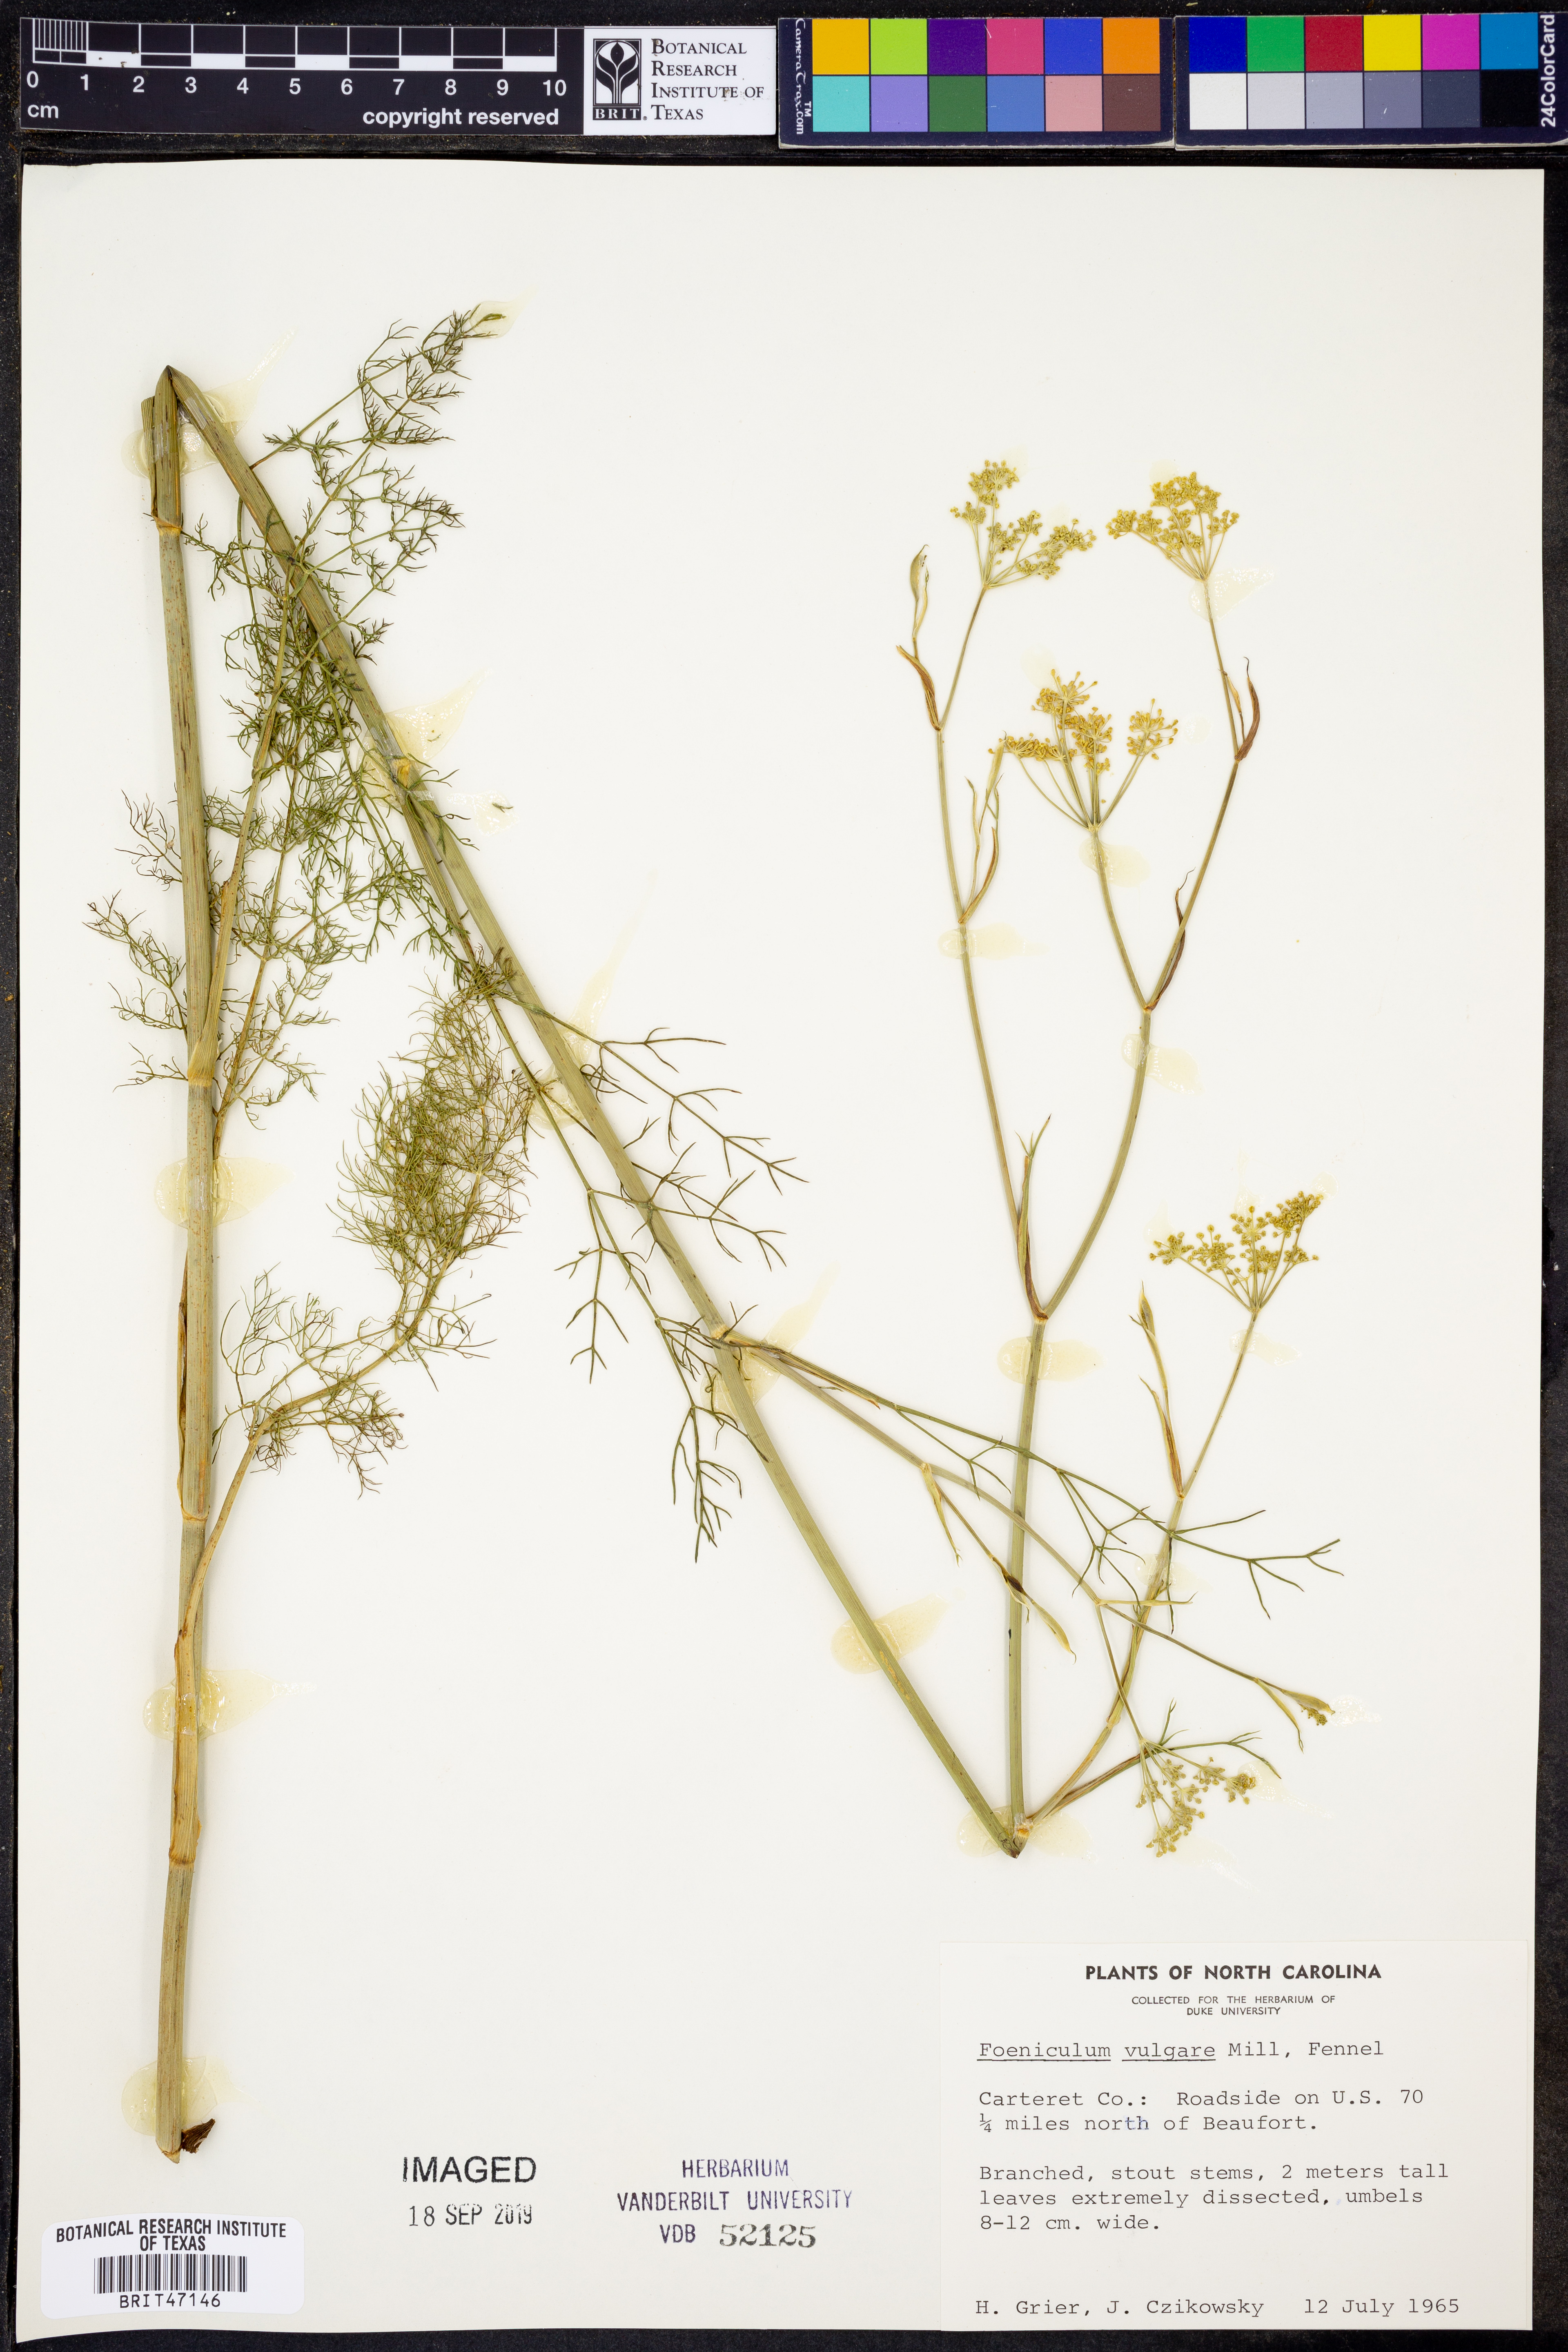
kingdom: Plantae
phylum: Tracheophyta
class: Magnoliopsida
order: Apiales
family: Apiaceae
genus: Foeniculum
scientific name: Foeniculum vulgare
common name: Fennel
